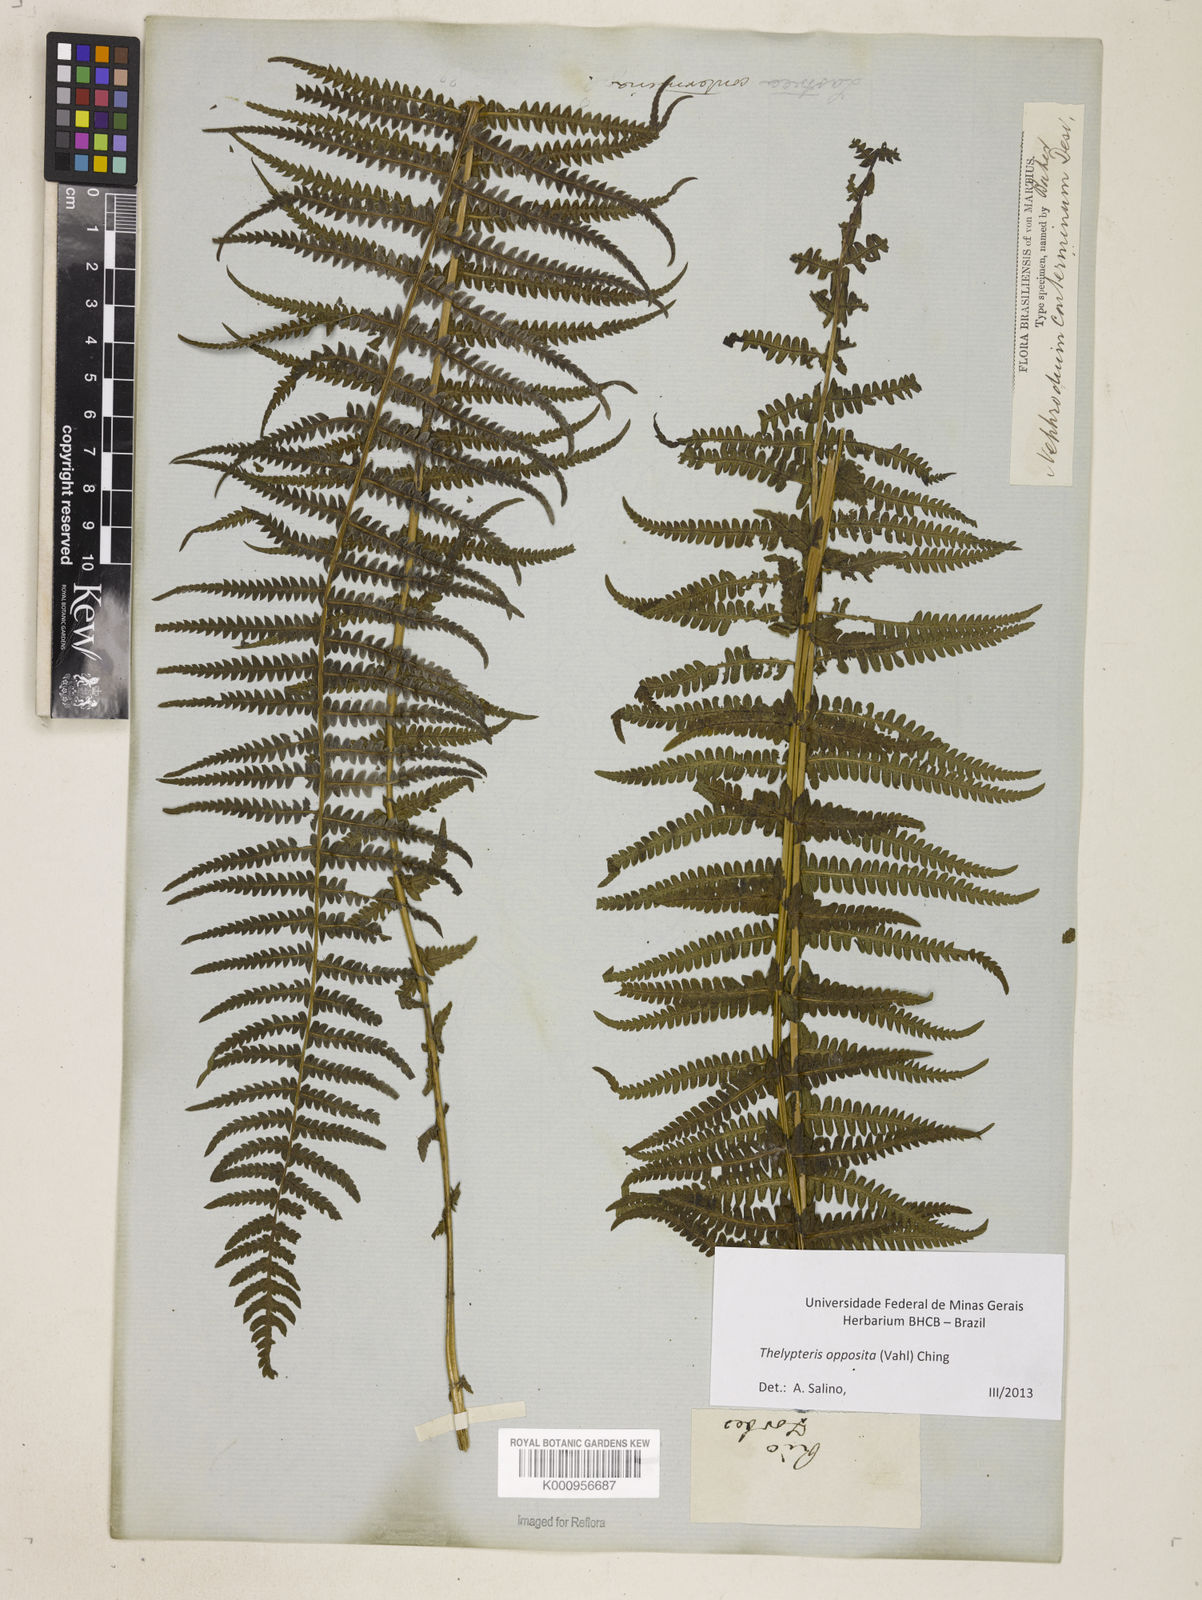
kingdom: Plantae
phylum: Tracheophyta
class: Polypodiopsida
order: Polypodiales
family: Thelypteridaceae
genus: Amauropelta
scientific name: Amauropelta opposita
